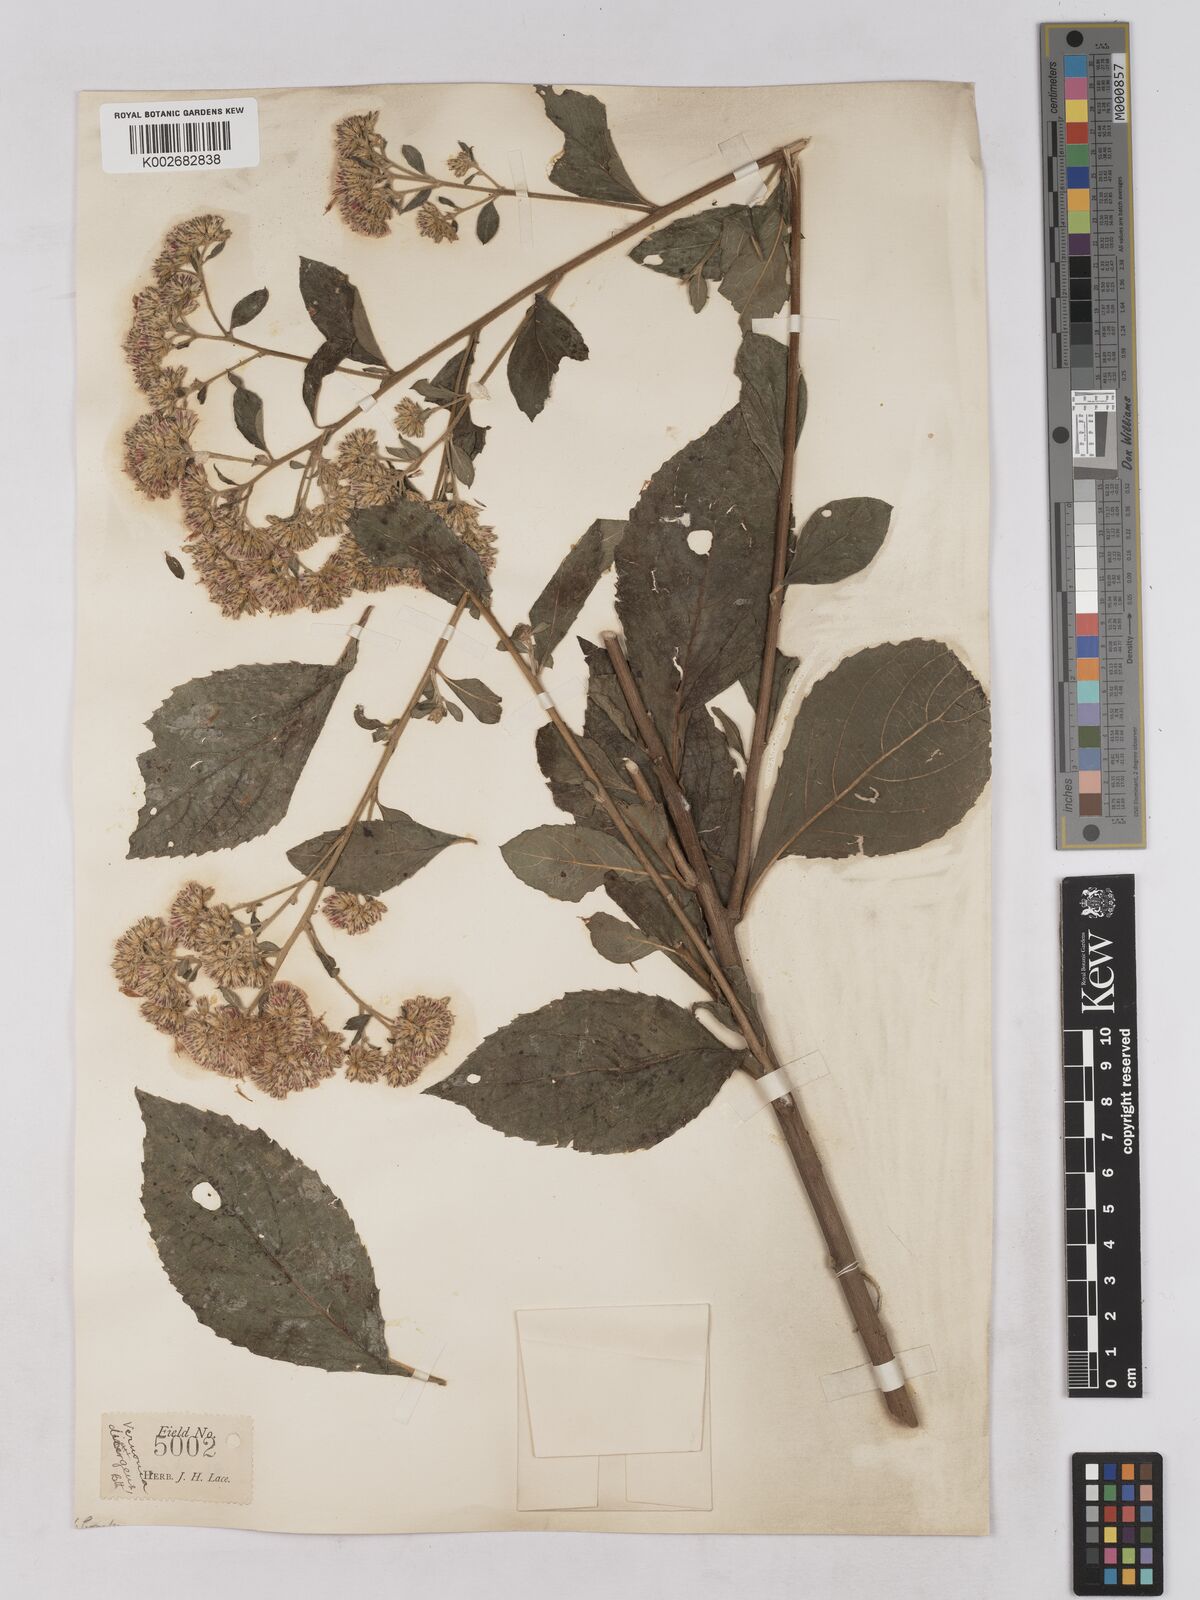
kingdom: Plantae
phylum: Tracheophyta
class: Magnoliopsida
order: Asterales
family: Asteraceae
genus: Acilepis
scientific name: Acilepis divergens
